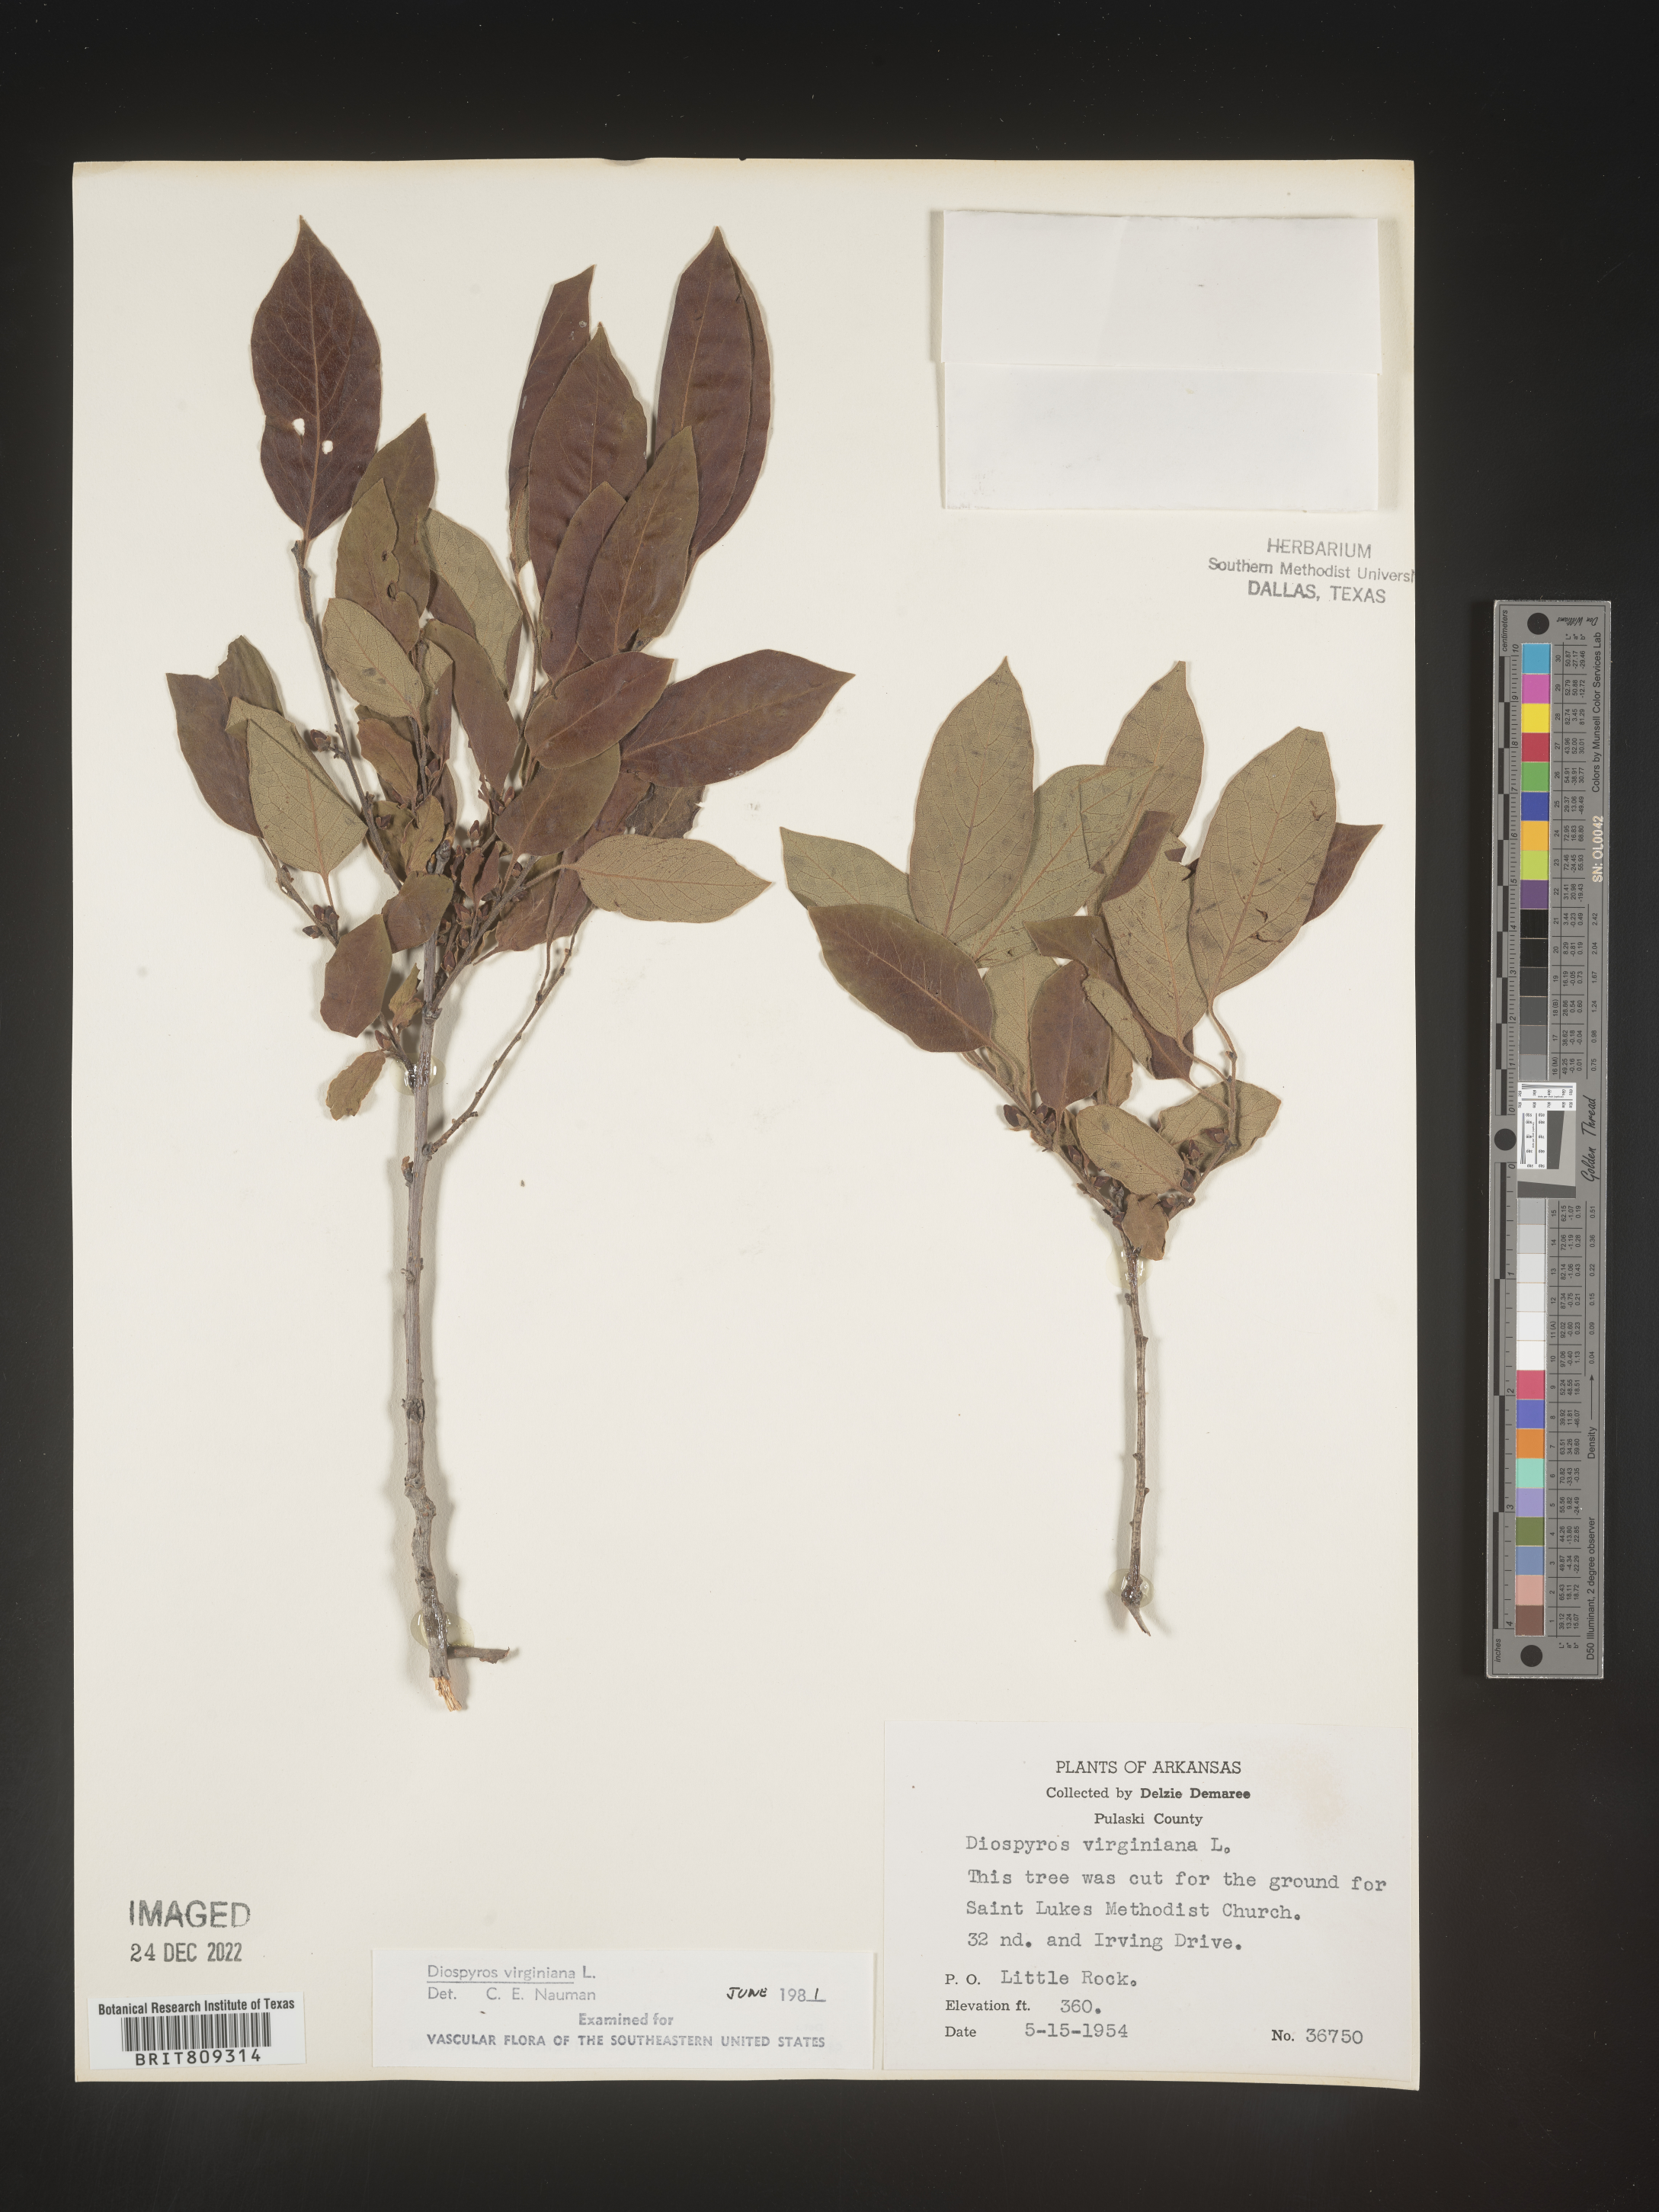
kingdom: Plantae
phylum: Tracheophyta
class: Magnoliopsida
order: Ericales
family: Ebenaceae
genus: Diospyros
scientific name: Diospyros virginiana
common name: Persimmon
